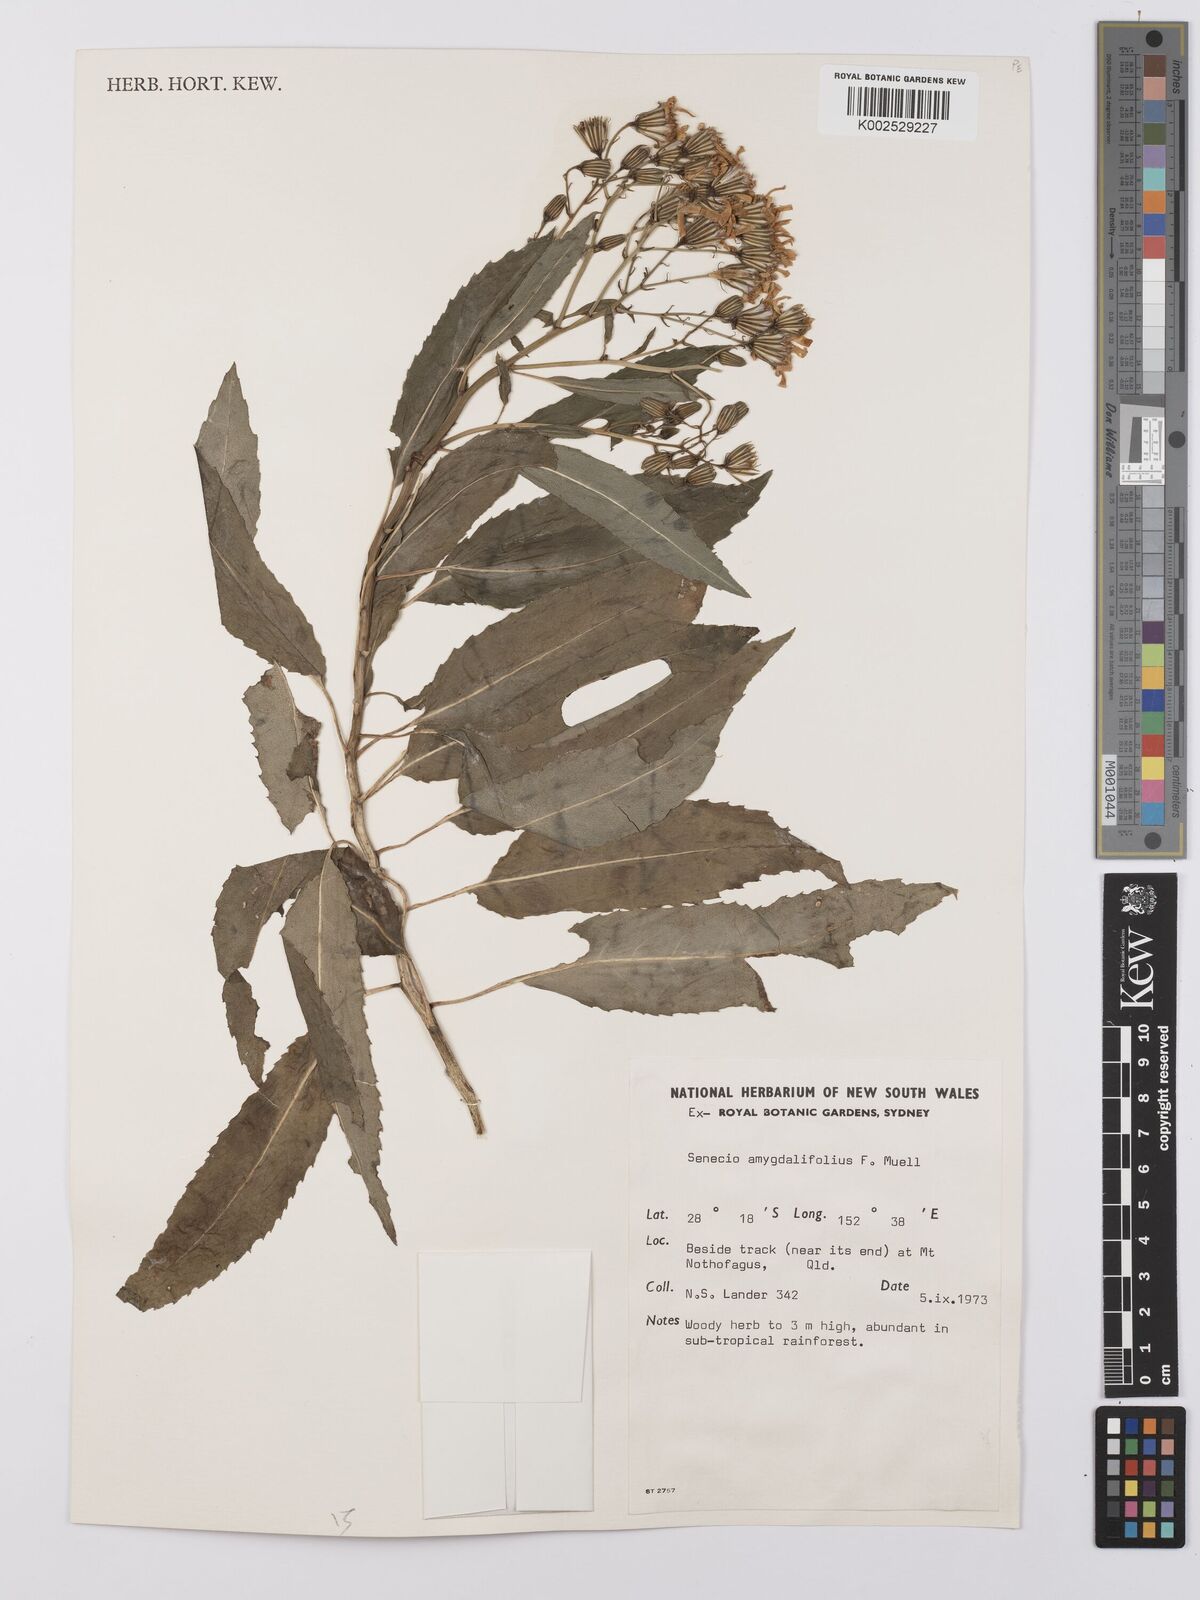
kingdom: Plantae
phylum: Tracheophyta
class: Magnoliopsida
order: Asterales
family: Asteraceae
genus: Lordhowea
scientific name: Lordhowea amygdalifolia
